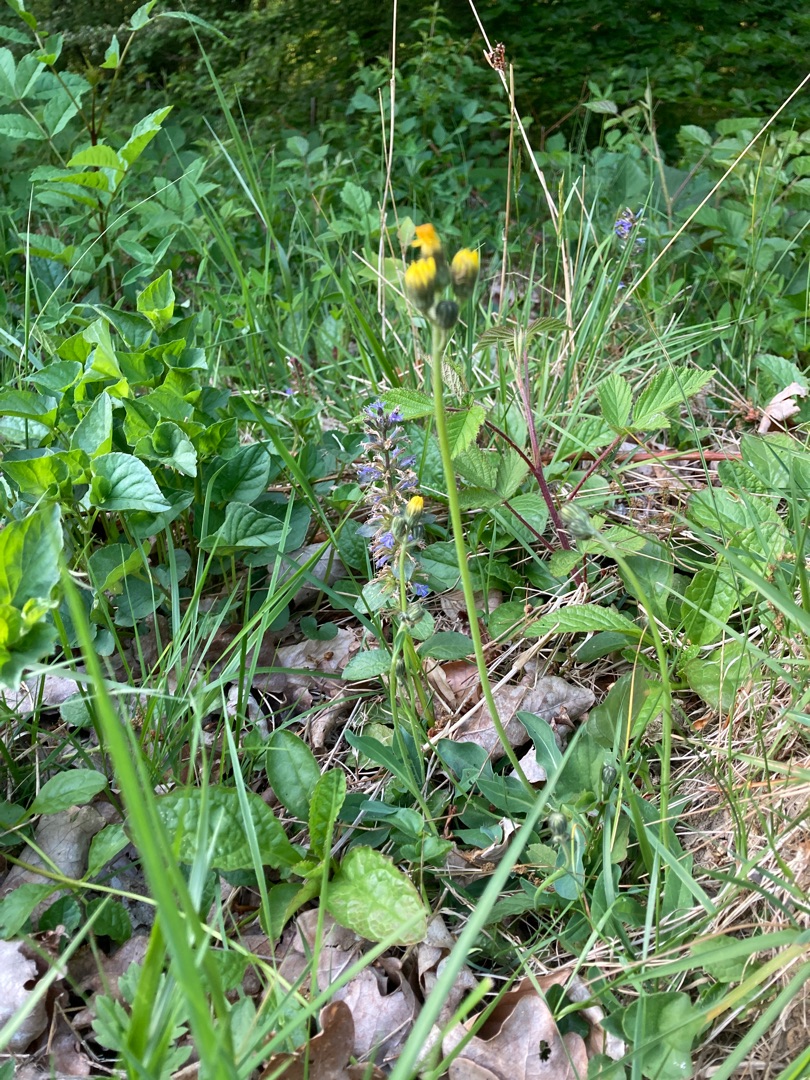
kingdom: Plantae
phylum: Tracheophyta
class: Magnoliopsida
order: Asterales
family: Asteraceae
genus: Pilosella
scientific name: Pilosella lactucella
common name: Lancetbladet høgeurt
